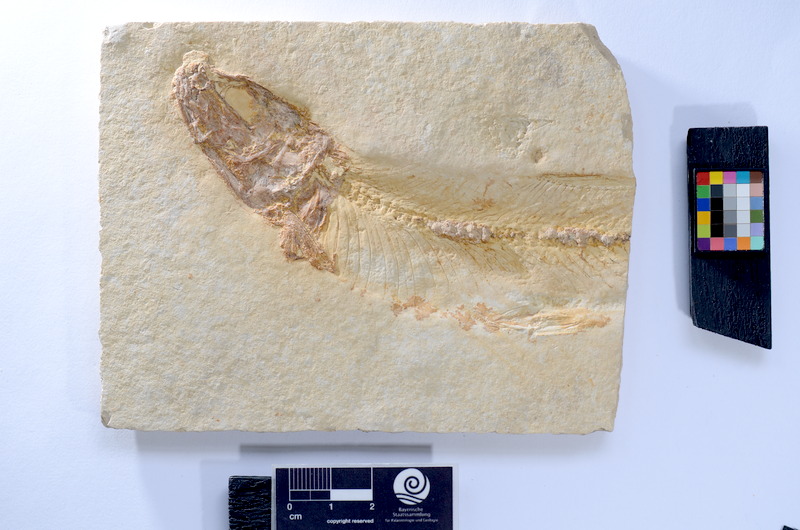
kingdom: Animalia
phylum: Chordata
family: Ascalaboidae
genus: Tharsis
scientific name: Tharsis dubius
